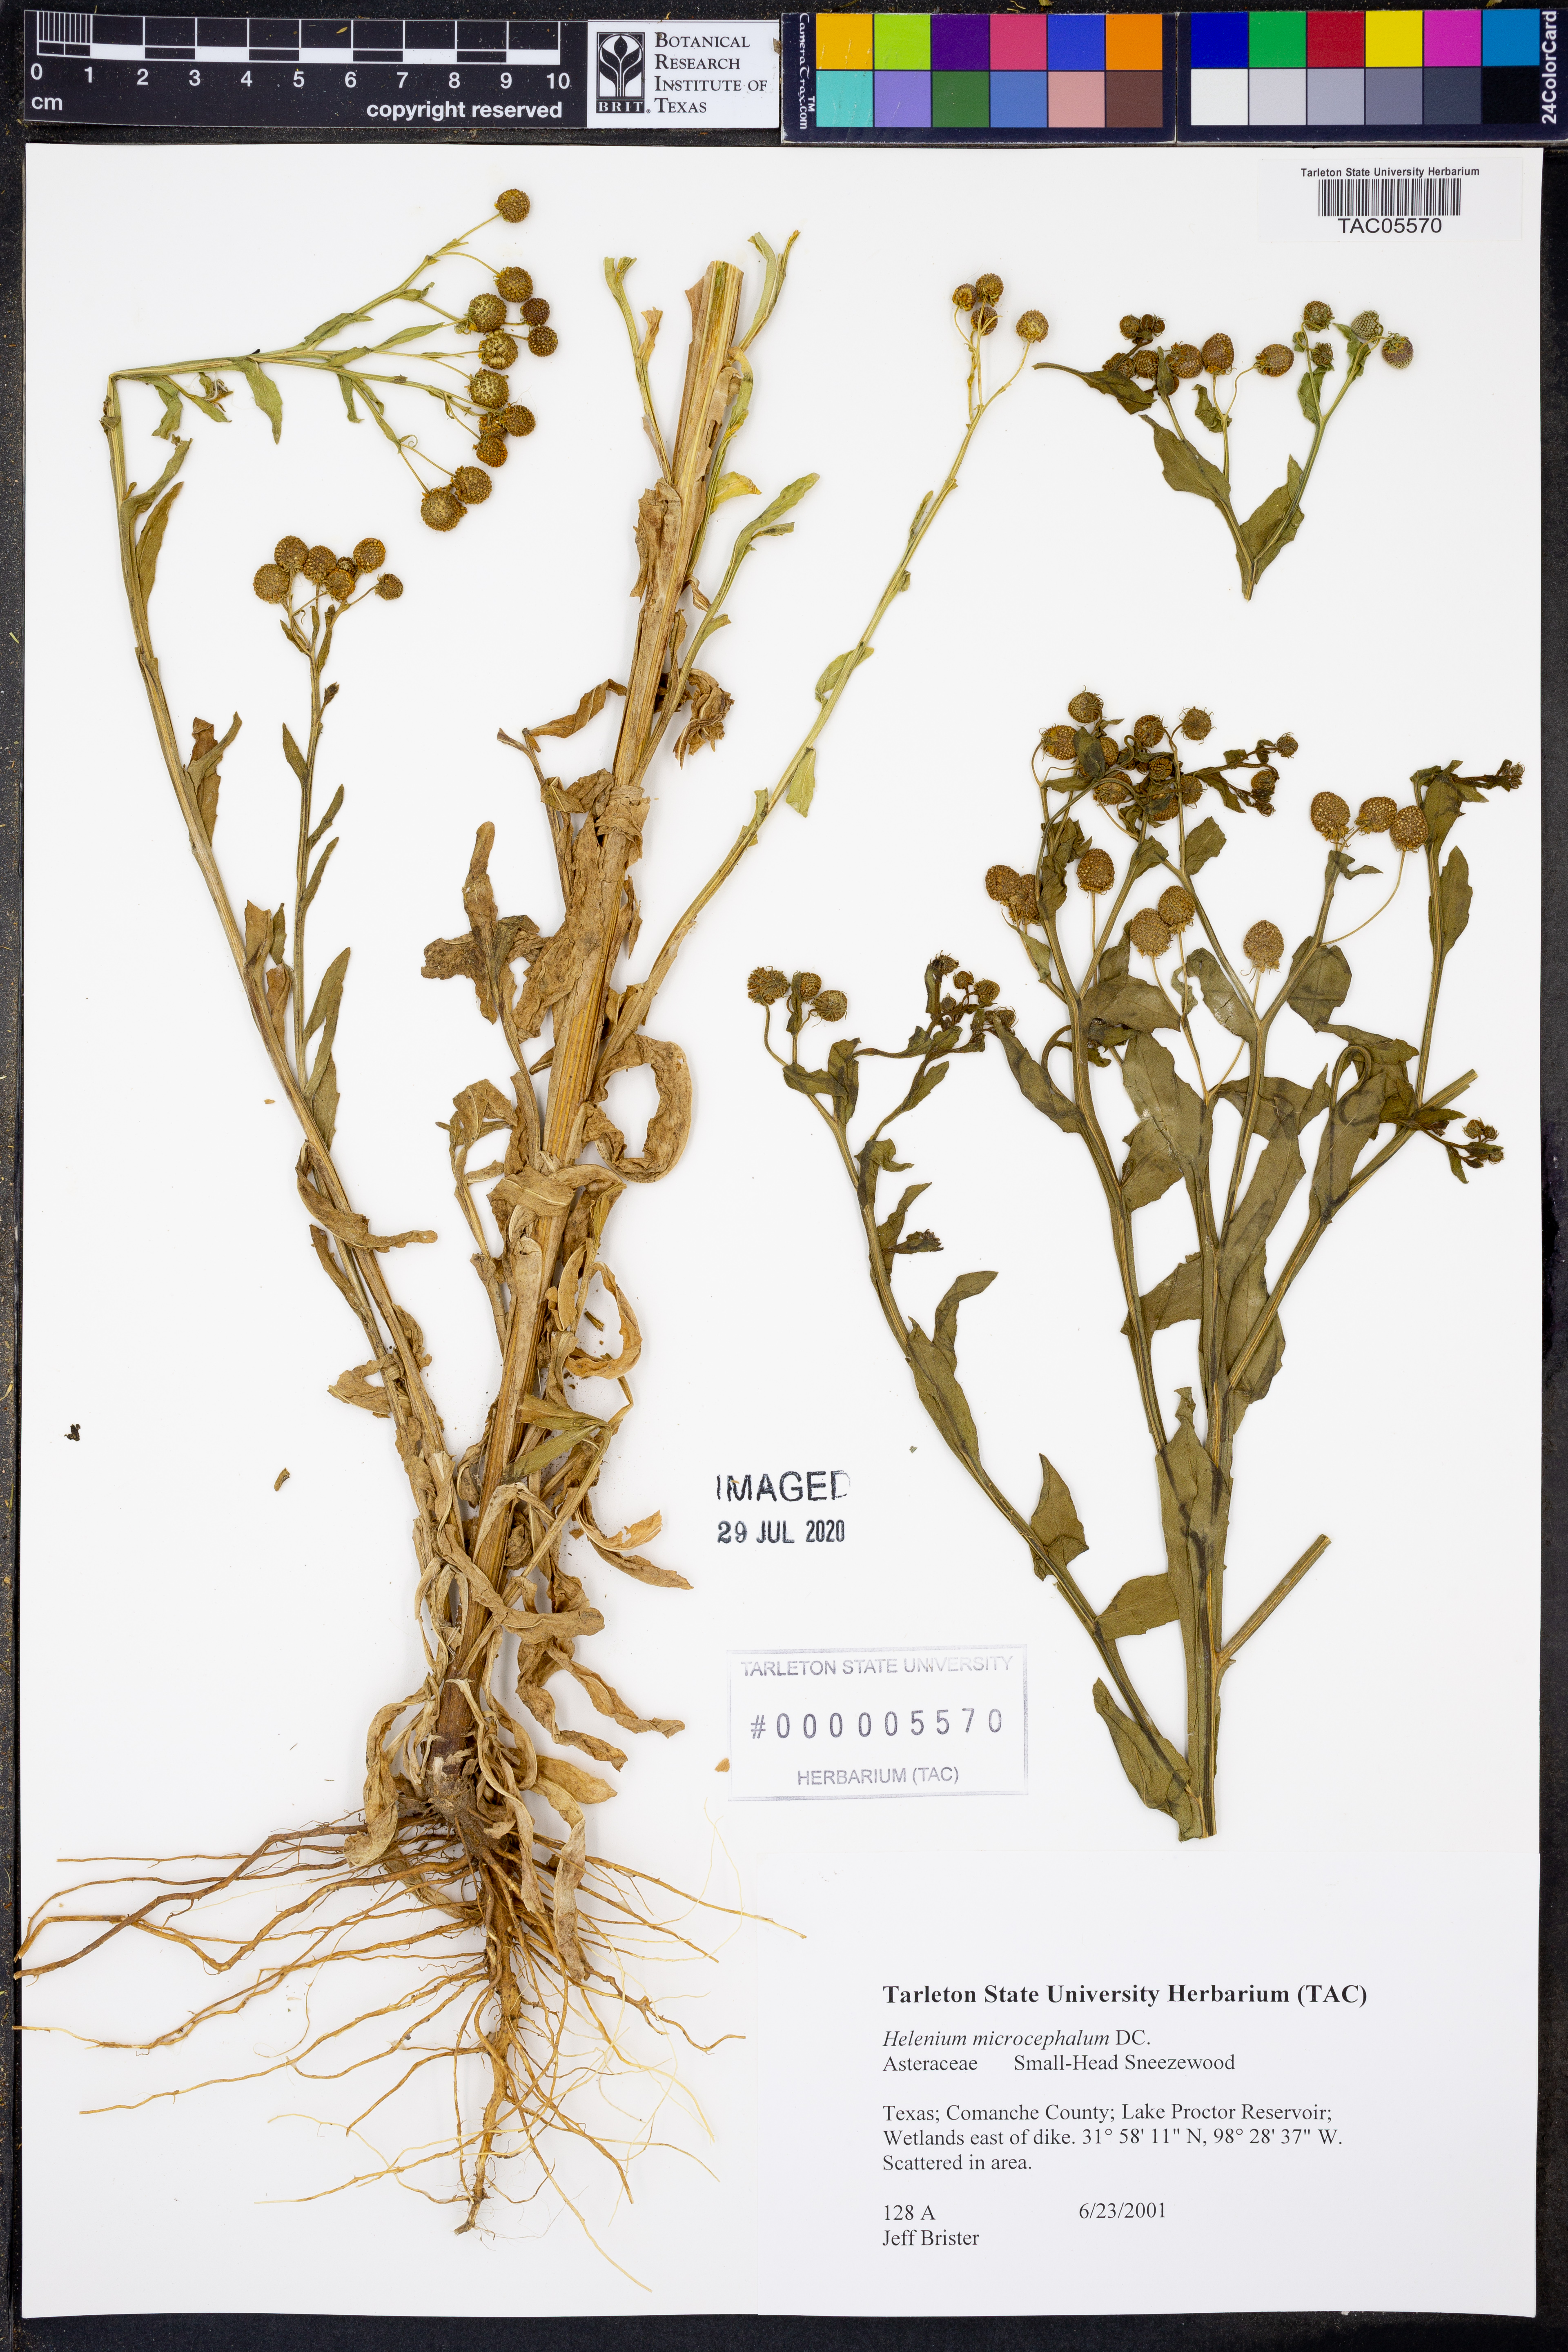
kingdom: Plantae
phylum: Tracheophyta
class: Magnoliopsida
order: Asterales
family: Asteraceae
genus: Helenium
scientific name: Helenium microcephalum
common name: Smallhead sneezeweed
